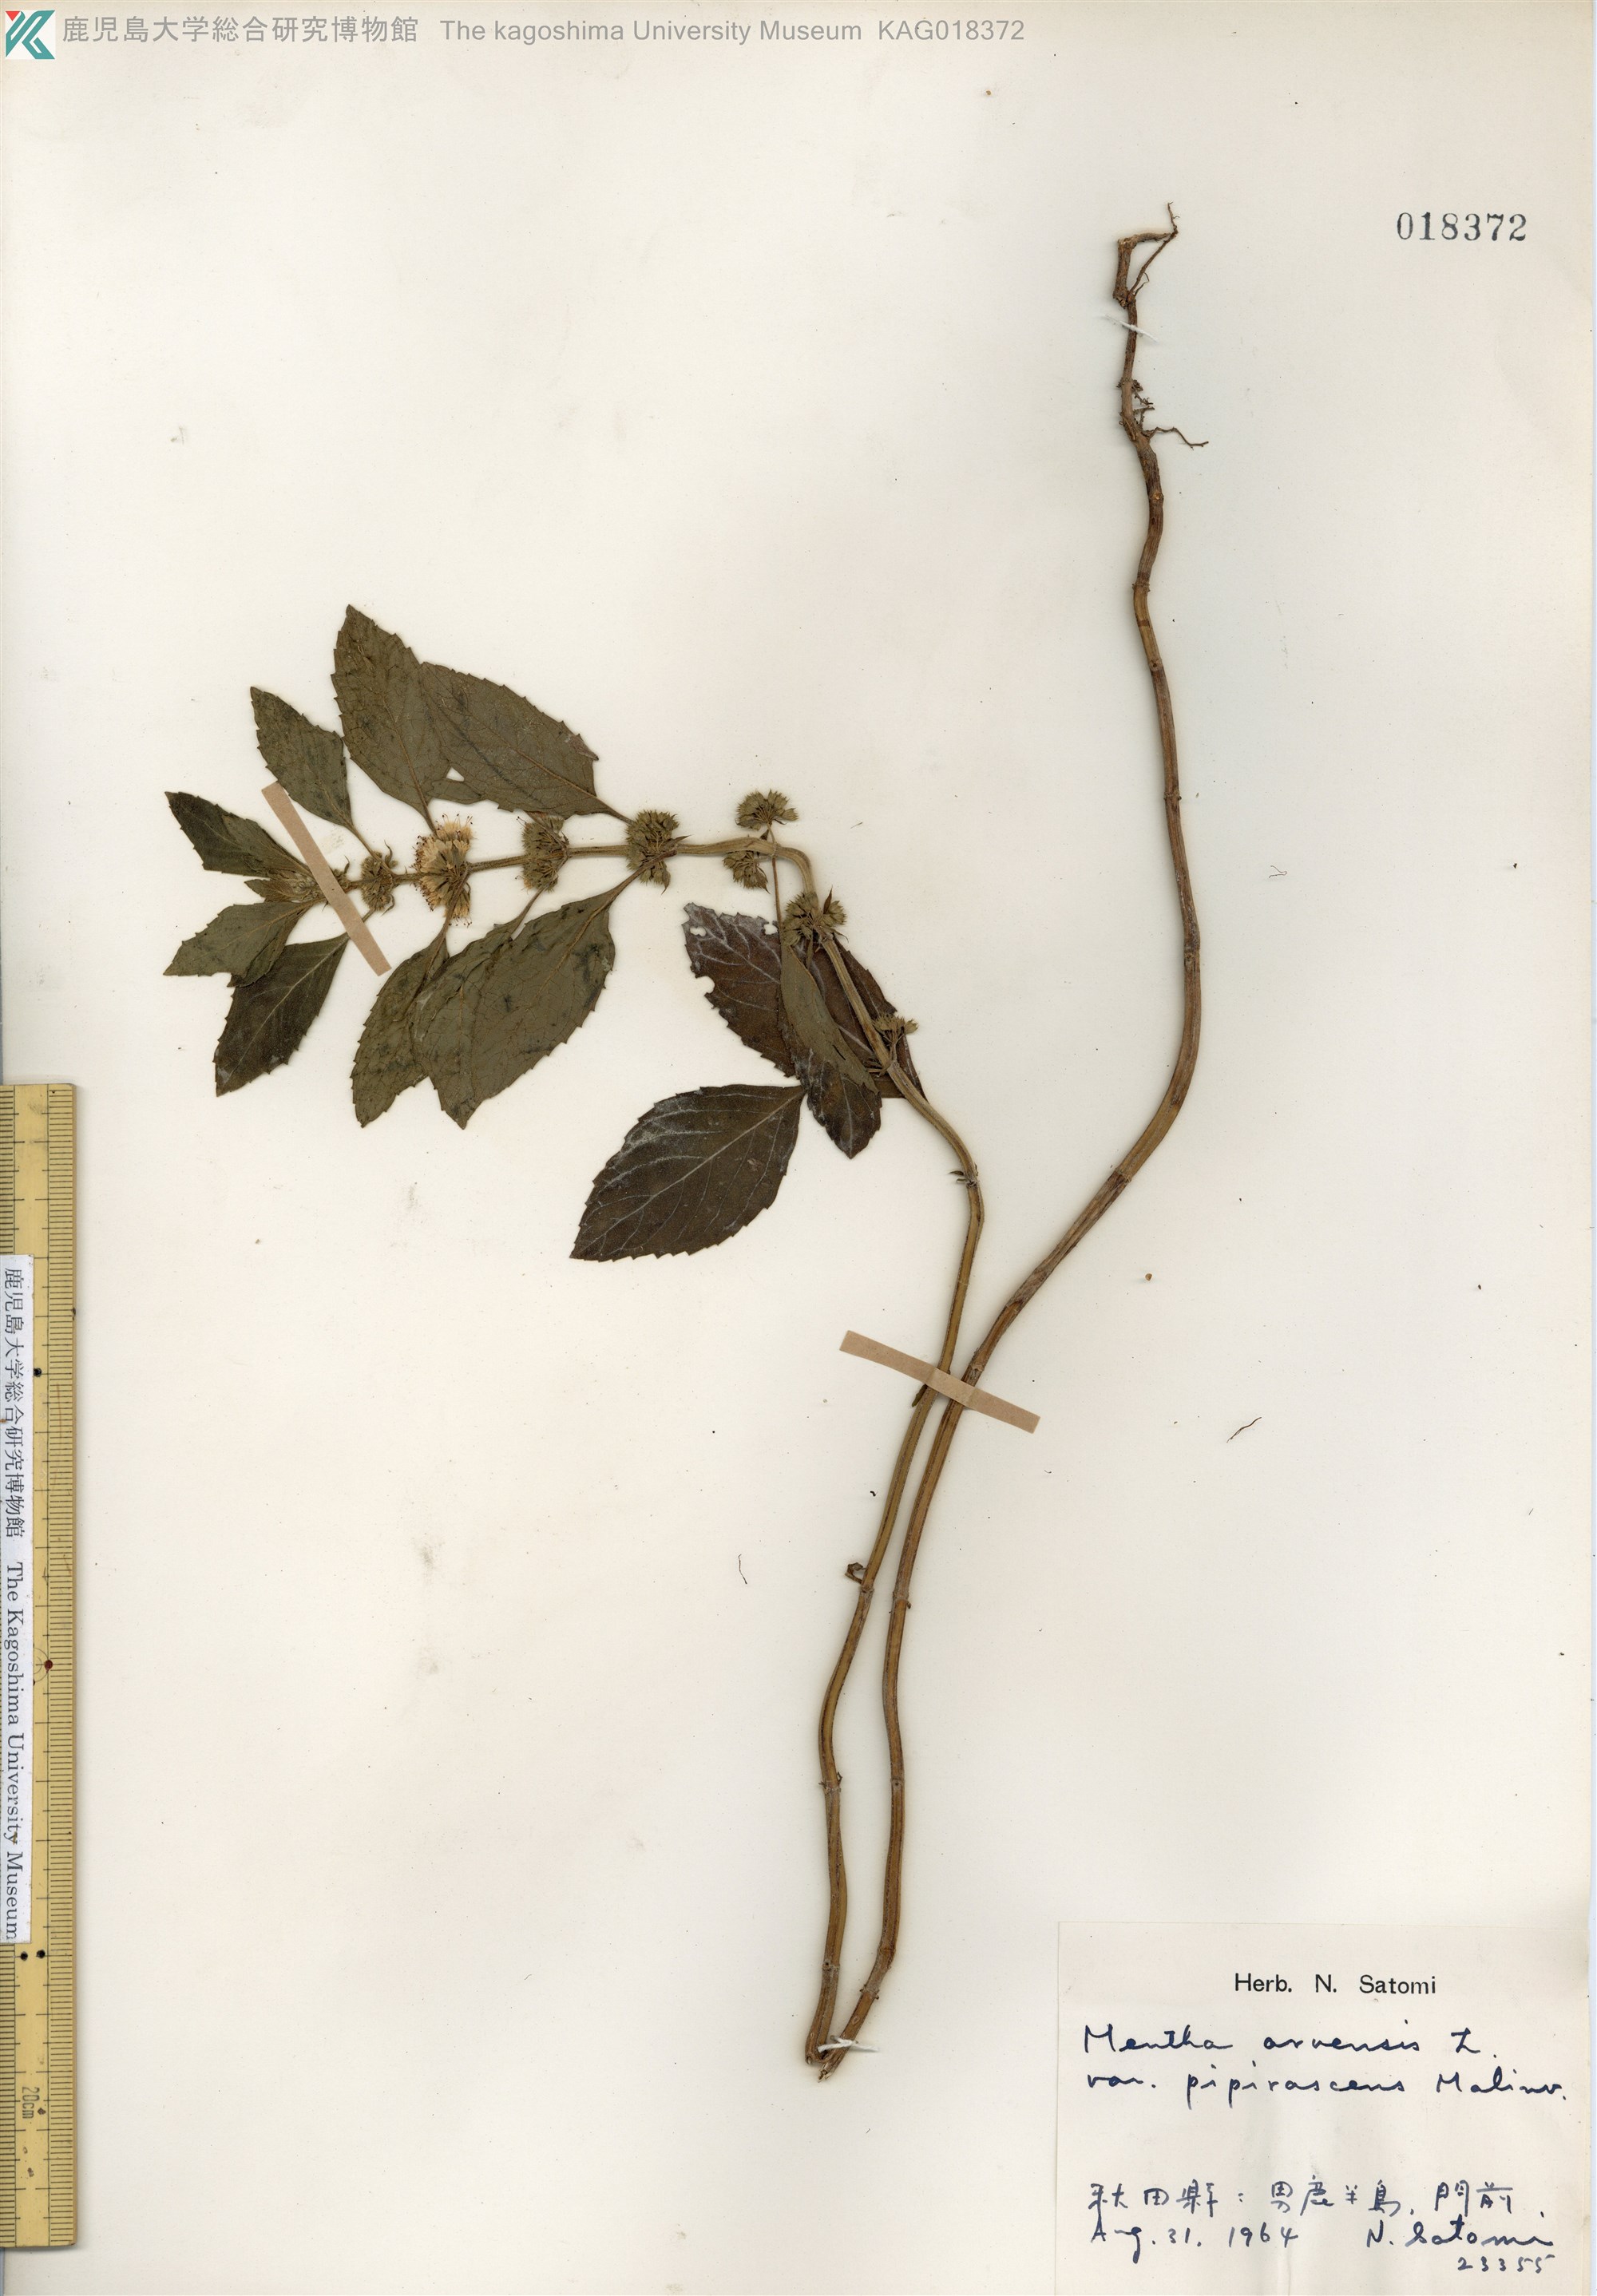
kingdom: Plantae
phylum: Tracheophyta
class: Magnoliopsida
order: Lamiales
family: Lamiaceae
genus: Mentha
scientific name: Mentha canadensis
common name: ハッカ
